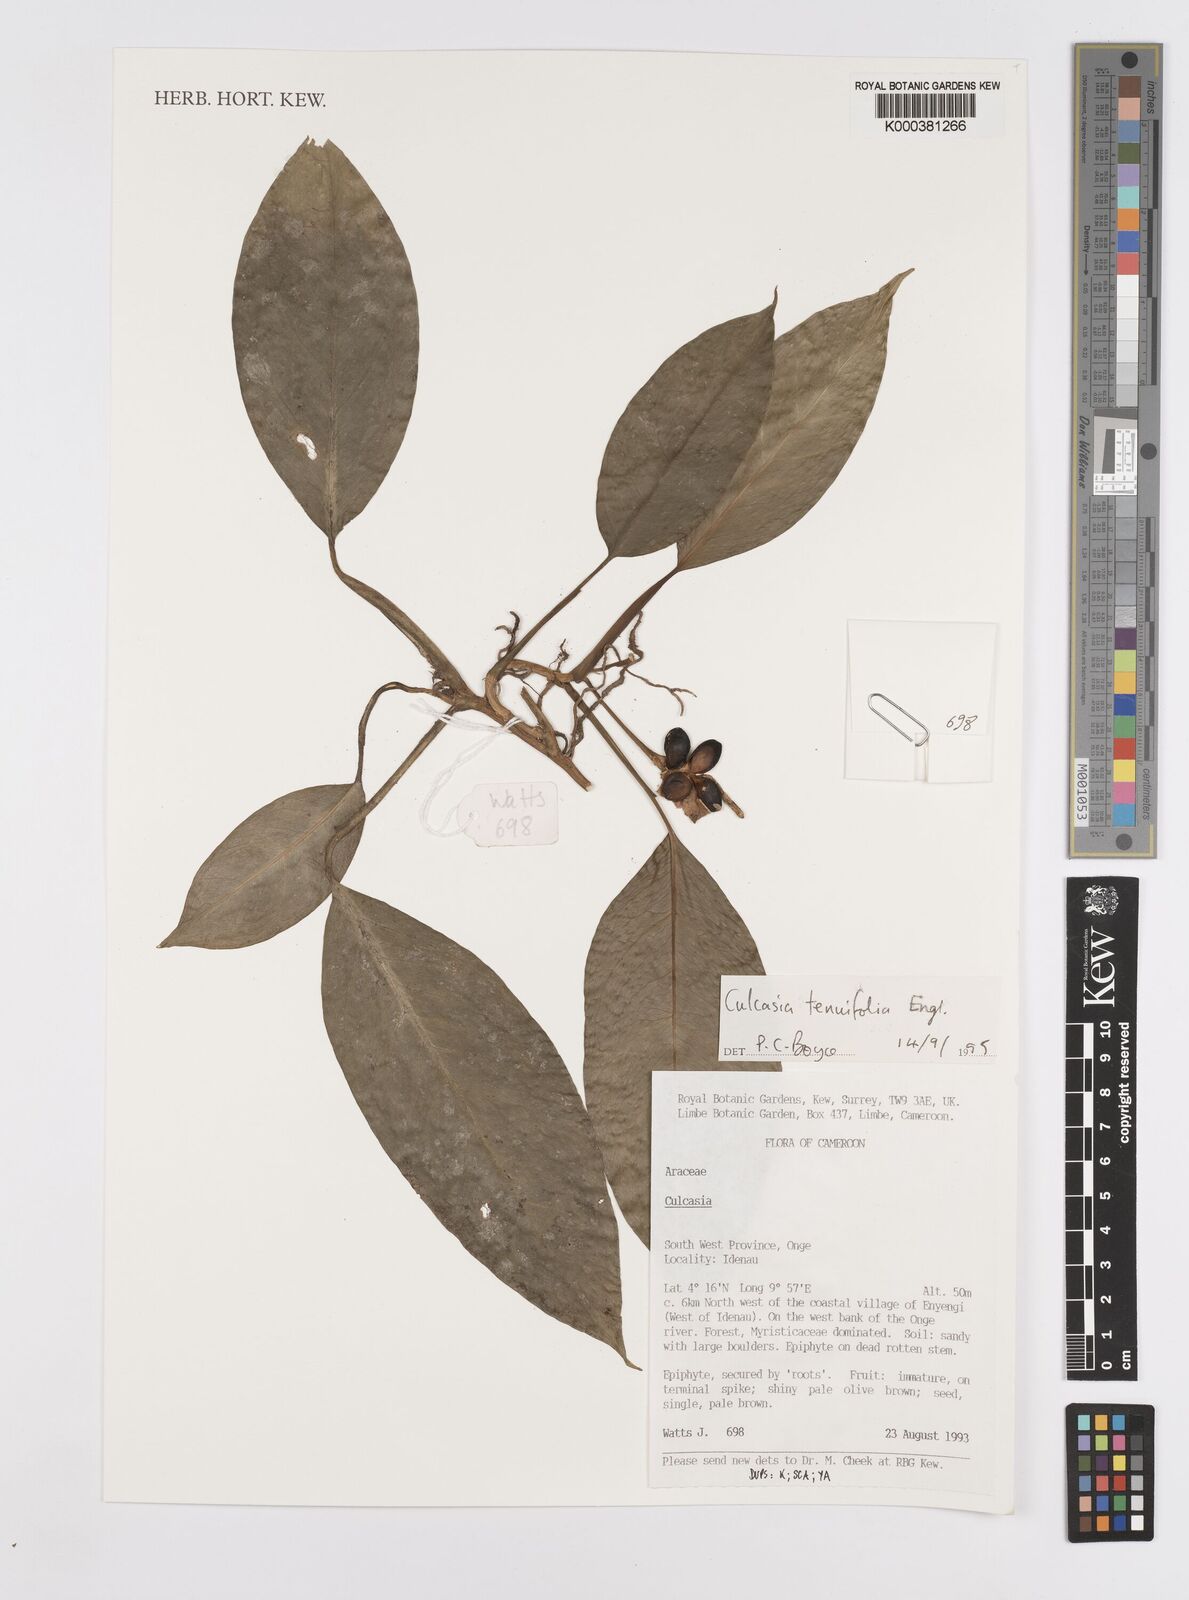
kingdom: Plantae
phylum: Tracheophyta
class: Liliopsida
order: Alismatales
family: Araceae
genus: Culcasia
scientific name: Culcasia tenuifolia
